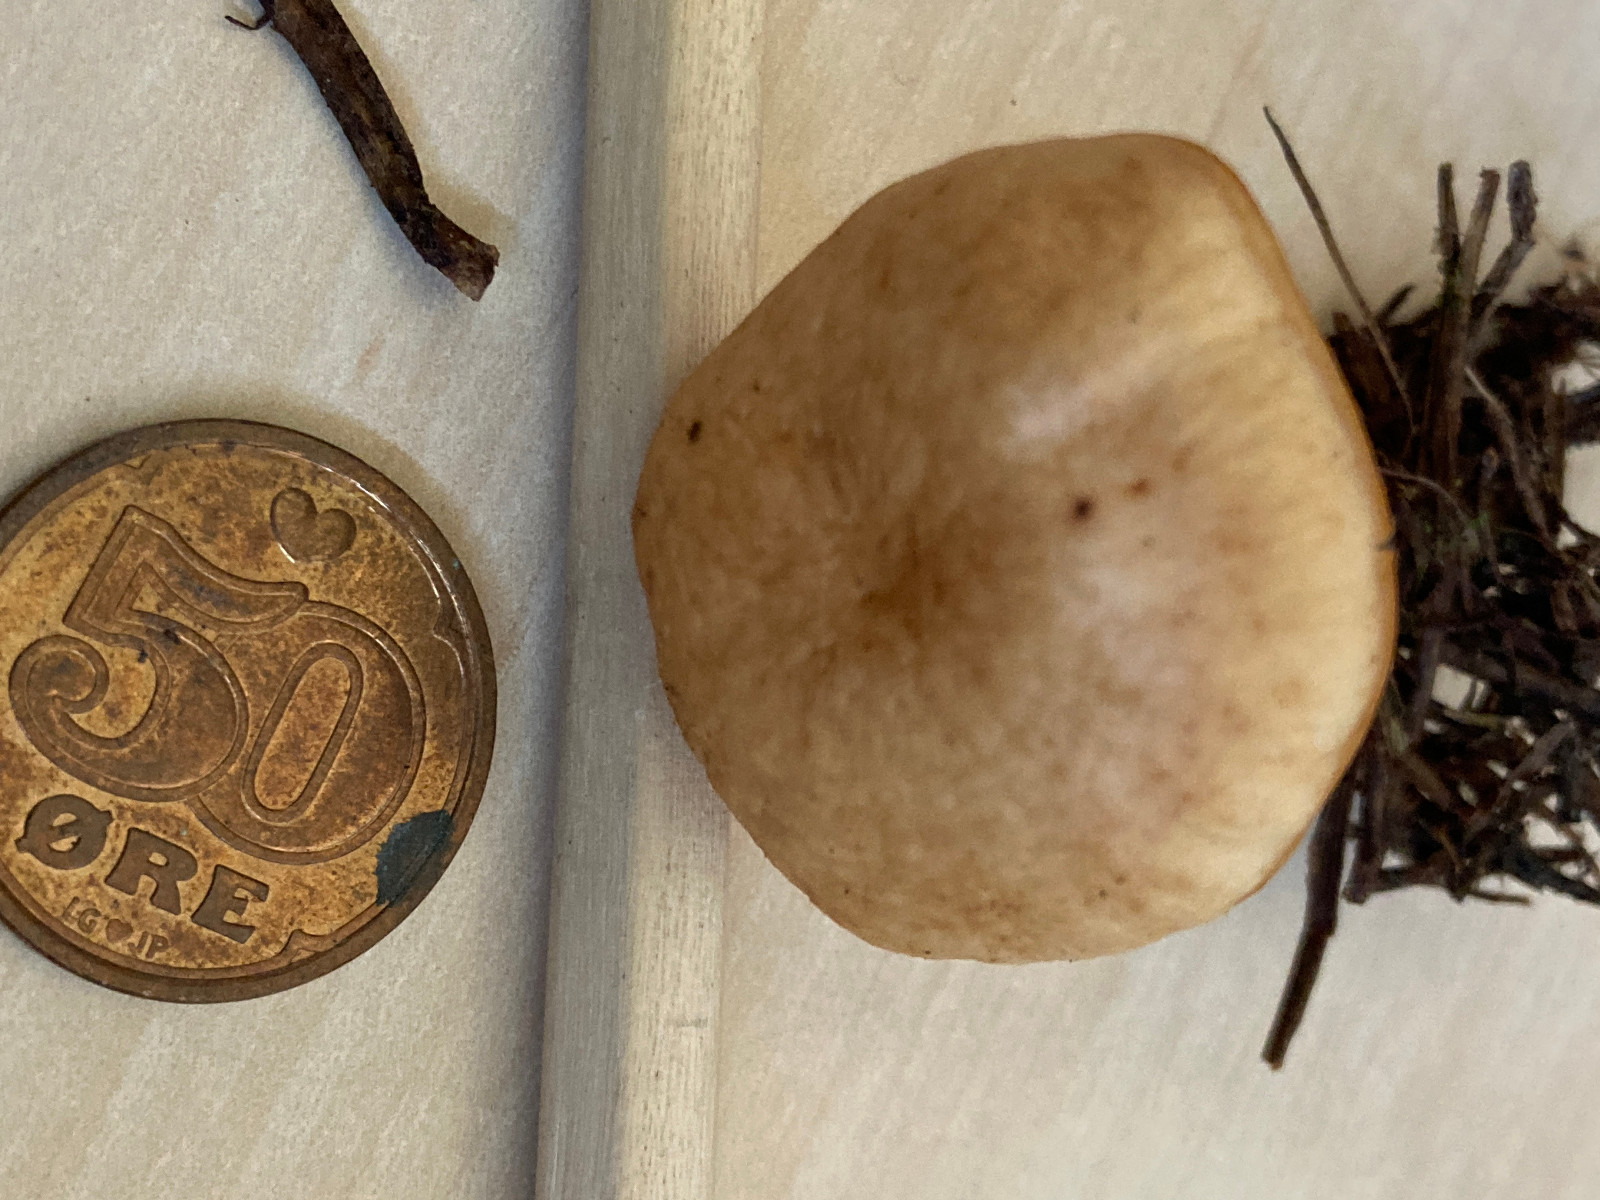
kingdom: Fungi
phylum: Basidiomycota
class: Agaricomycetes
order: Agaricales
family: Omphalotaceae
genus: Gymnopus
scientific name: Gymnopus dryophilus
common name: løv-fladhat
